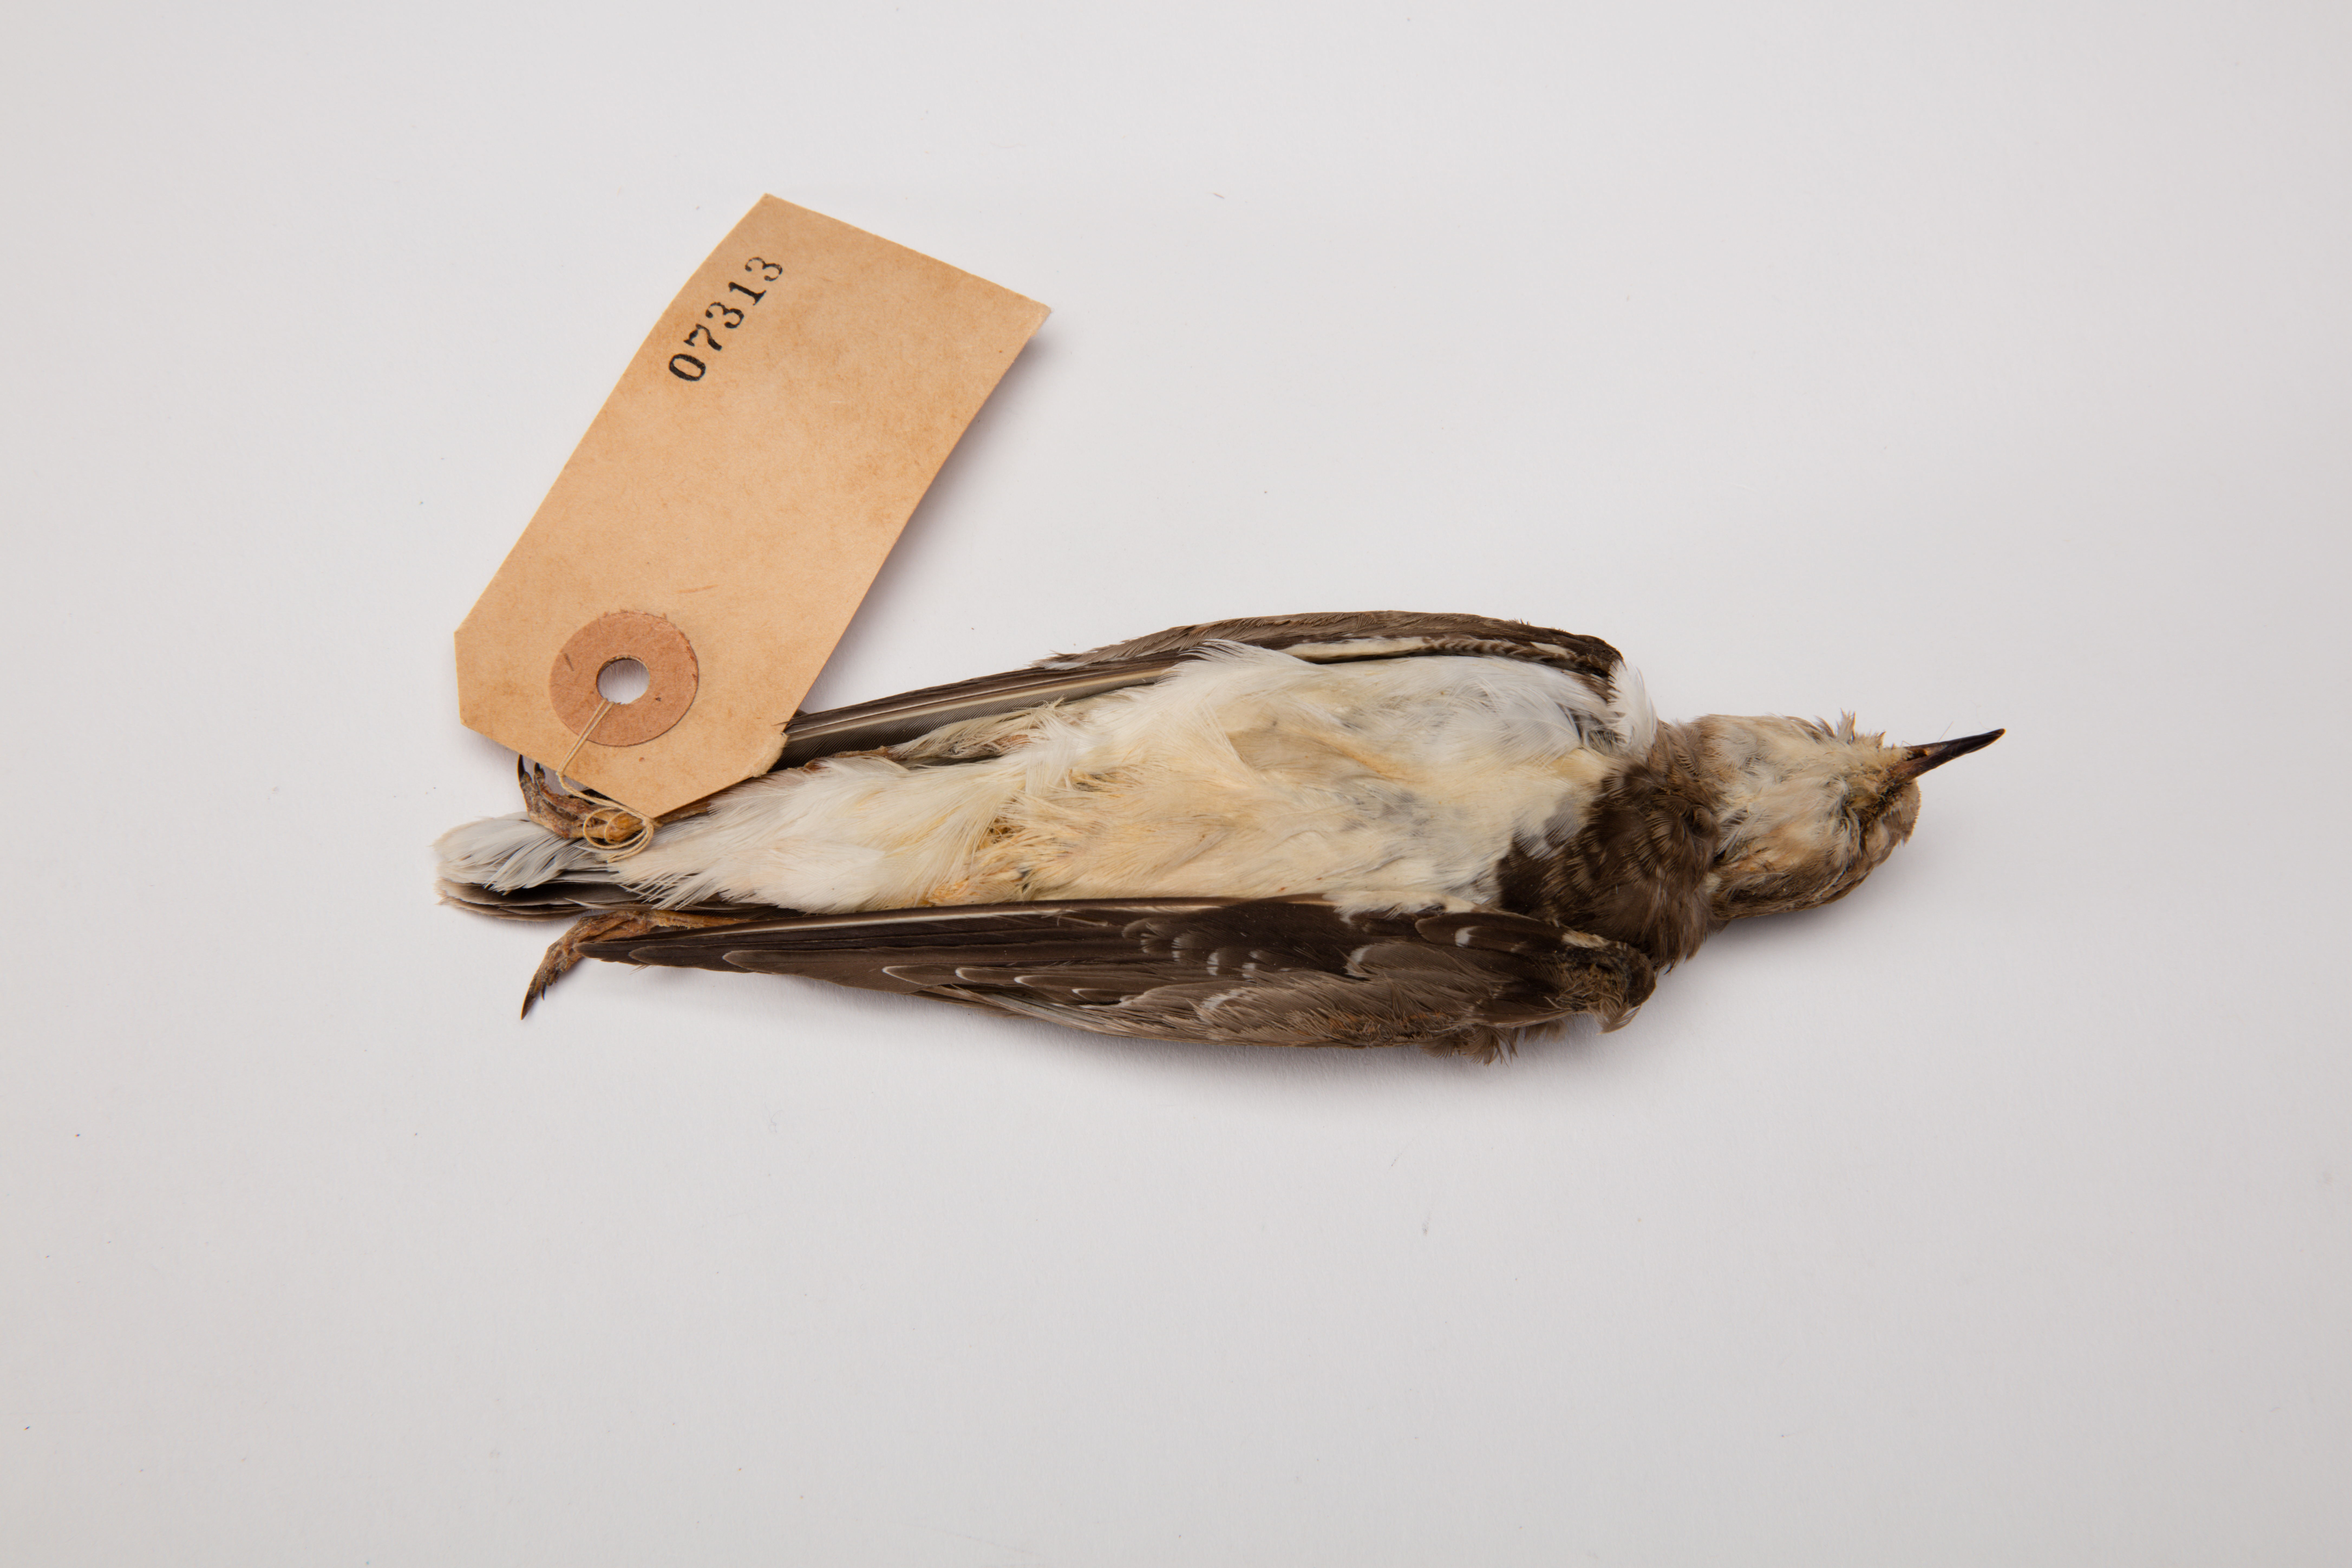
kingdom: Animalia
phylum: Chordata
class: Aves
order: Charadriiformes
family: Charadriidae
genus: Charadrius
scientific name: Charadrius dubius
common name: Little ringed plover
